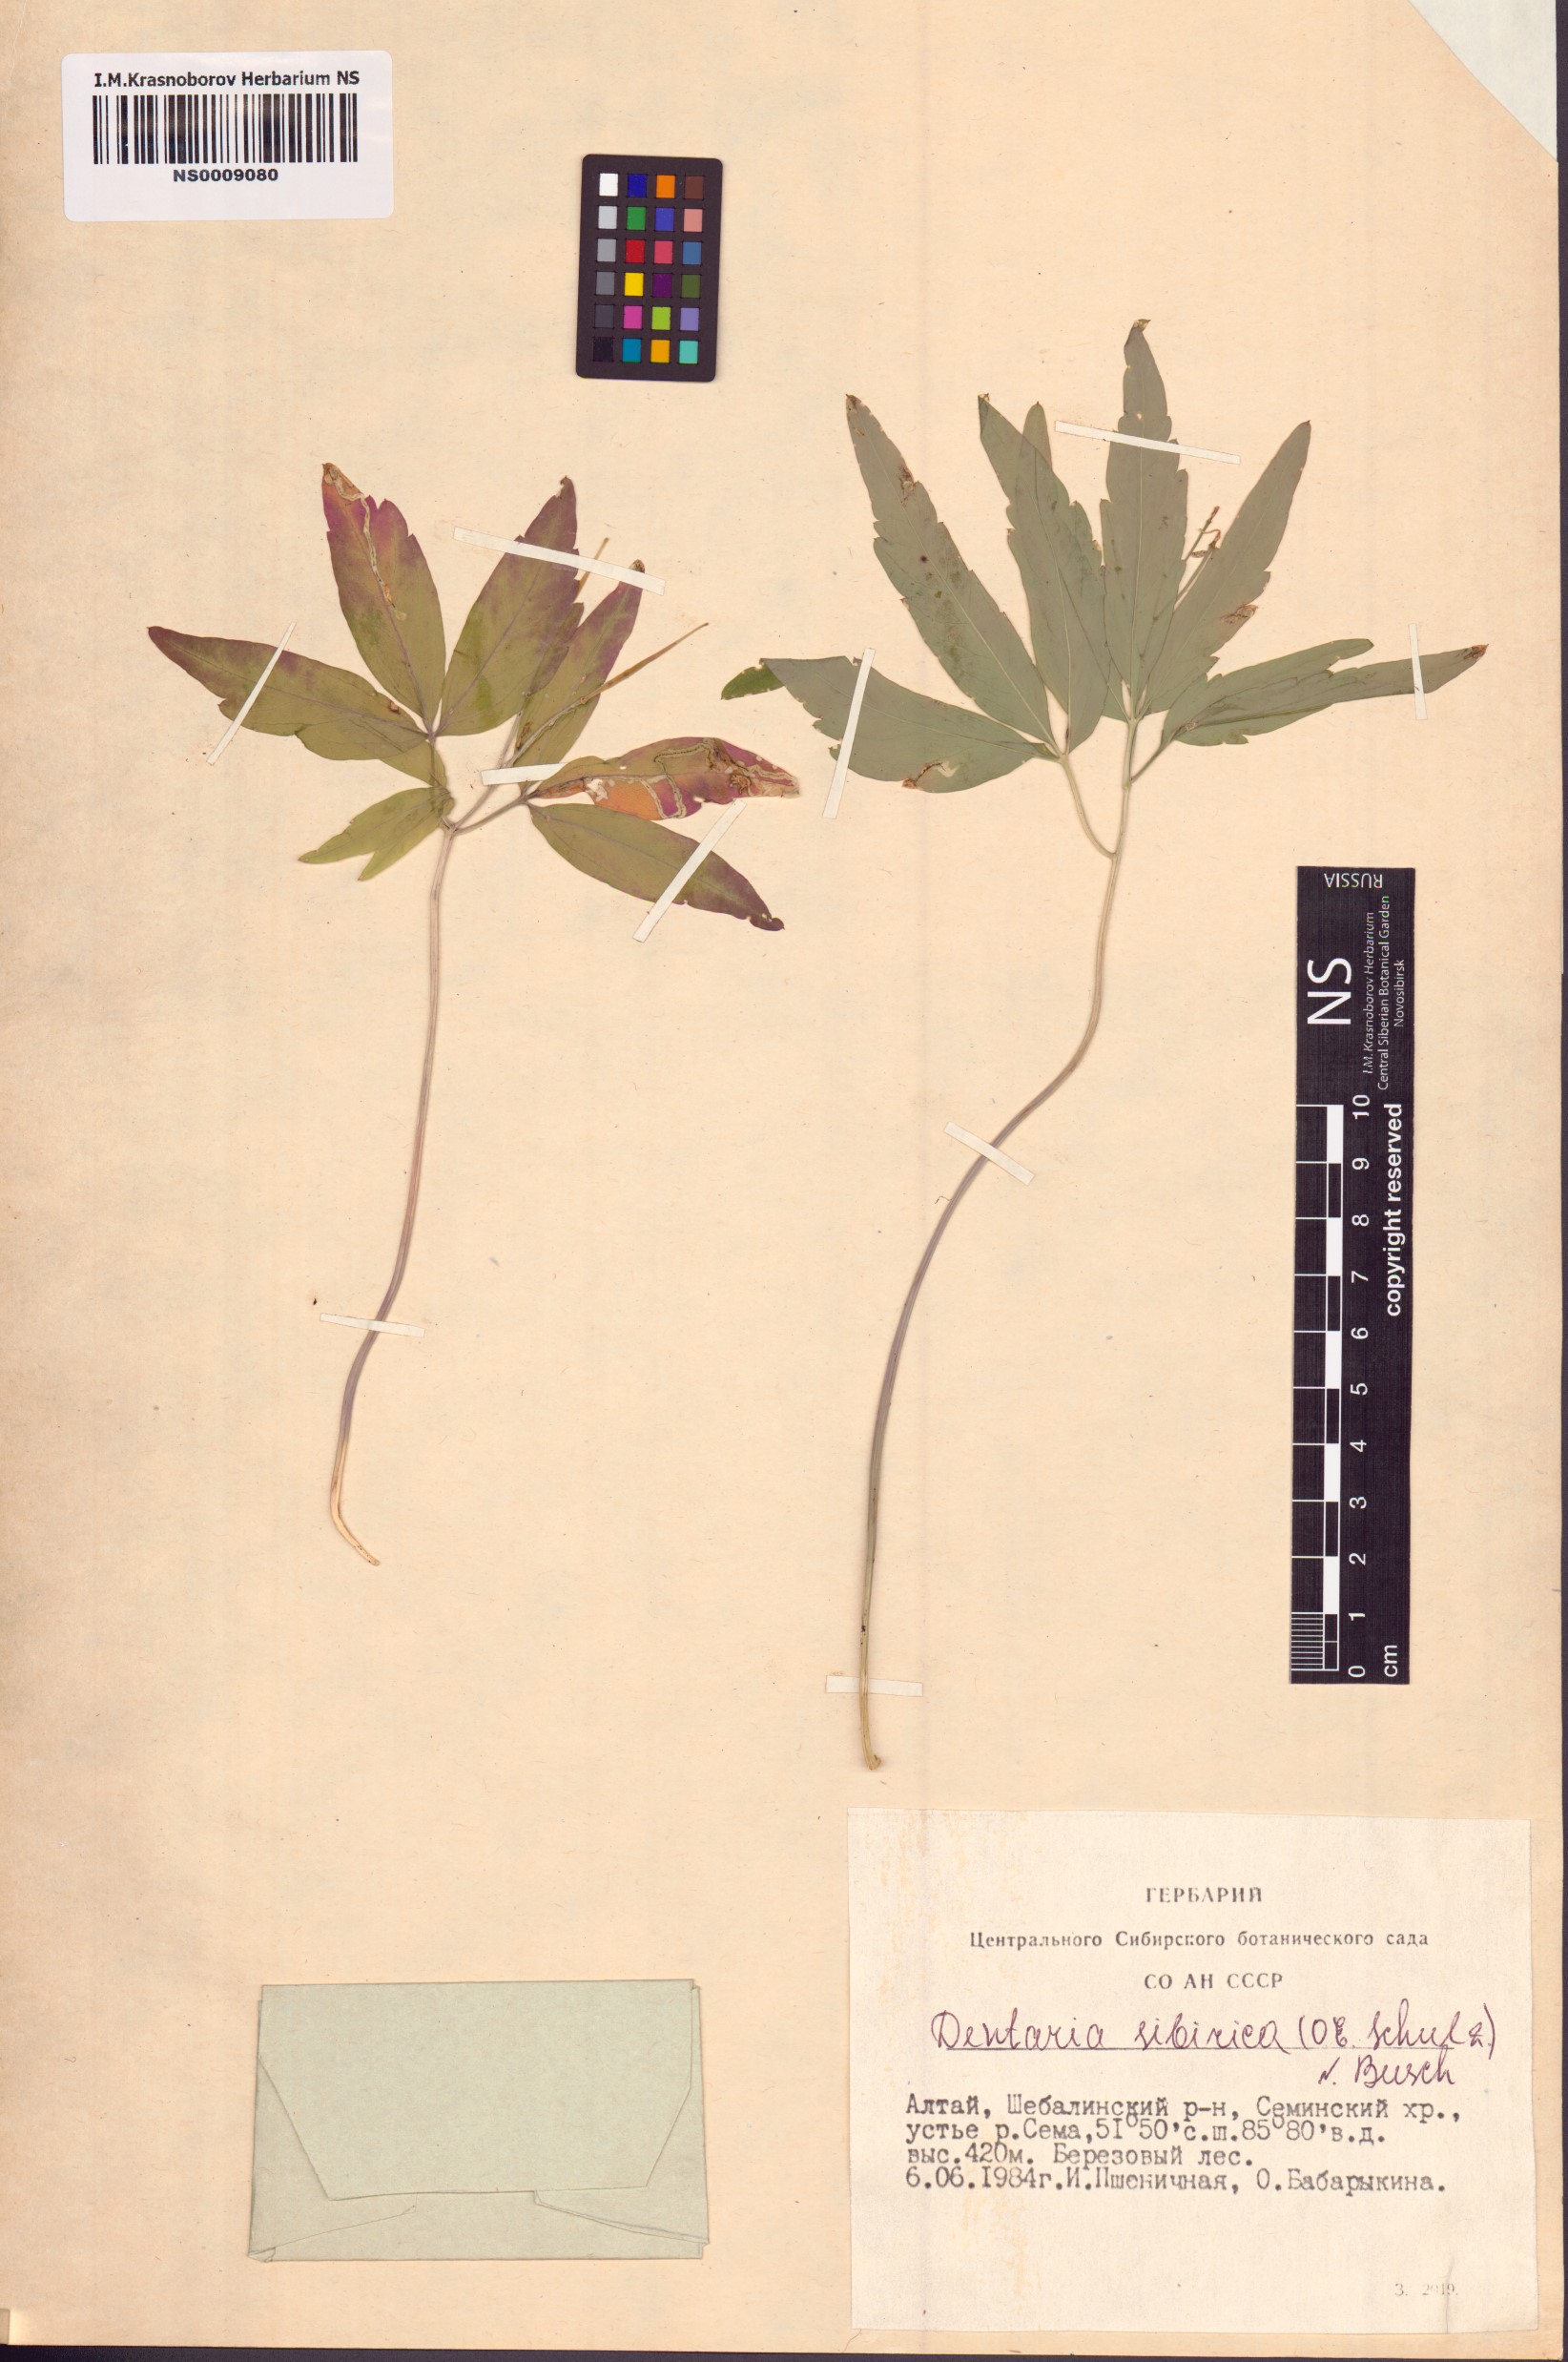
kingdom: Plantae
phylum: Tracheophyta
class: Magnoliopsida
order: Brassicales
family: Brassicaceae
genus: Cardamine
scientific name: Cardamine glanduligera
